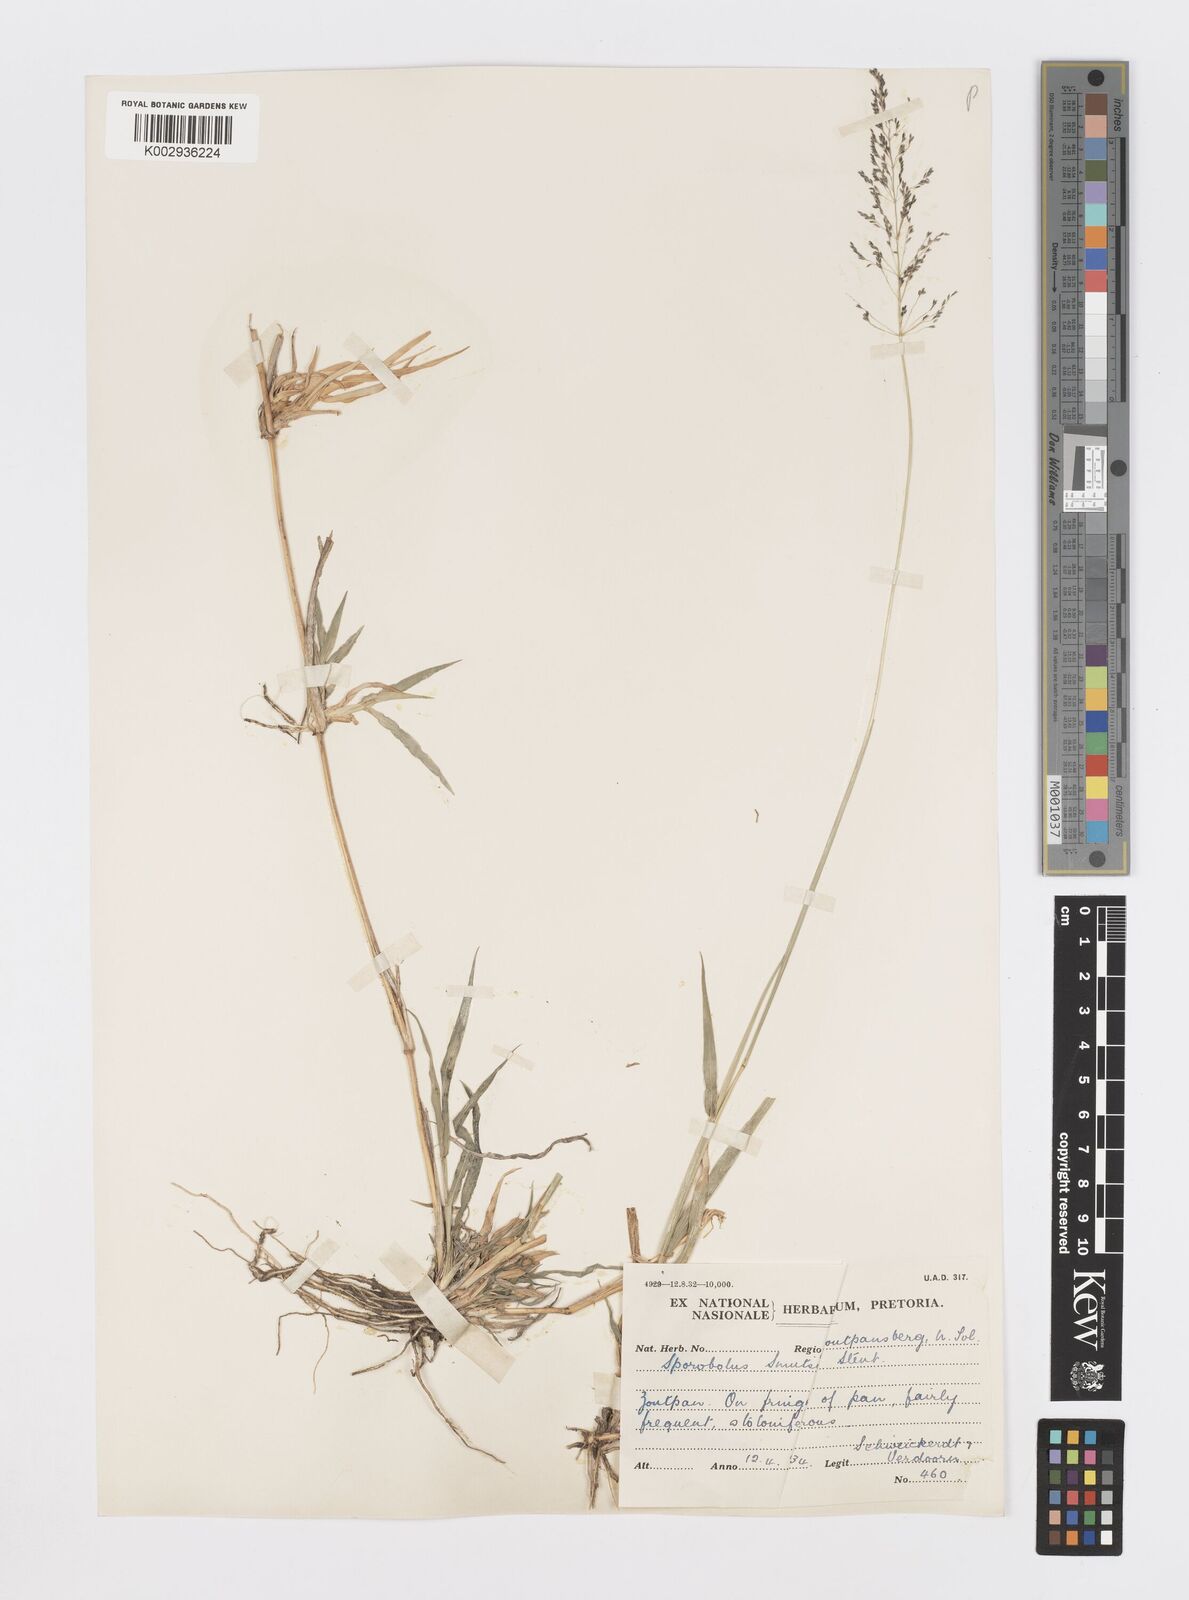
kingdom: Plantae
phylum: Tracheophyta
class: Liliopsida
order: Poales
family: Poaceae
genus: Sporobolus
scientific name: Sporobolus ioclados
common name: Pan dropseed
